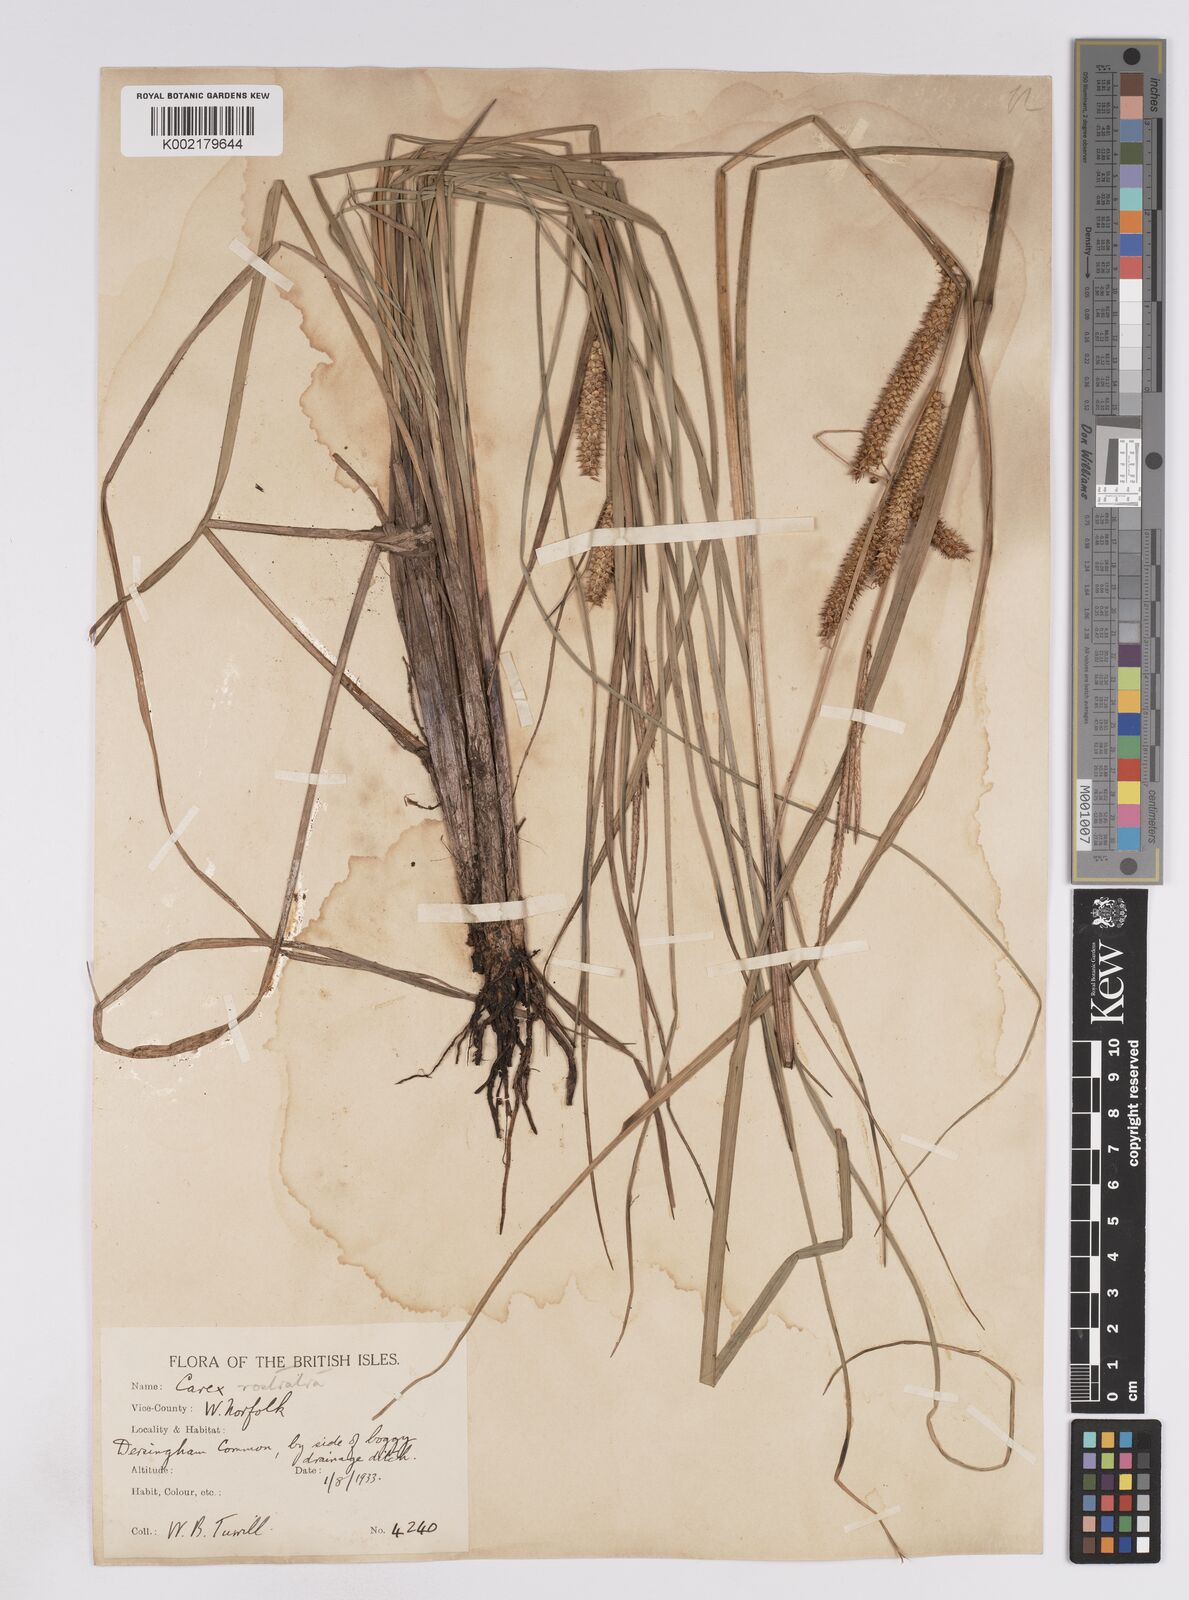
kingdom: Plantae
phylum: Tracheophyta
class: Liliopsida
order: Poales
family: Cyperaceae
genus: Carex
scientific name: Carex rostrata
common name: Bottle sedge
